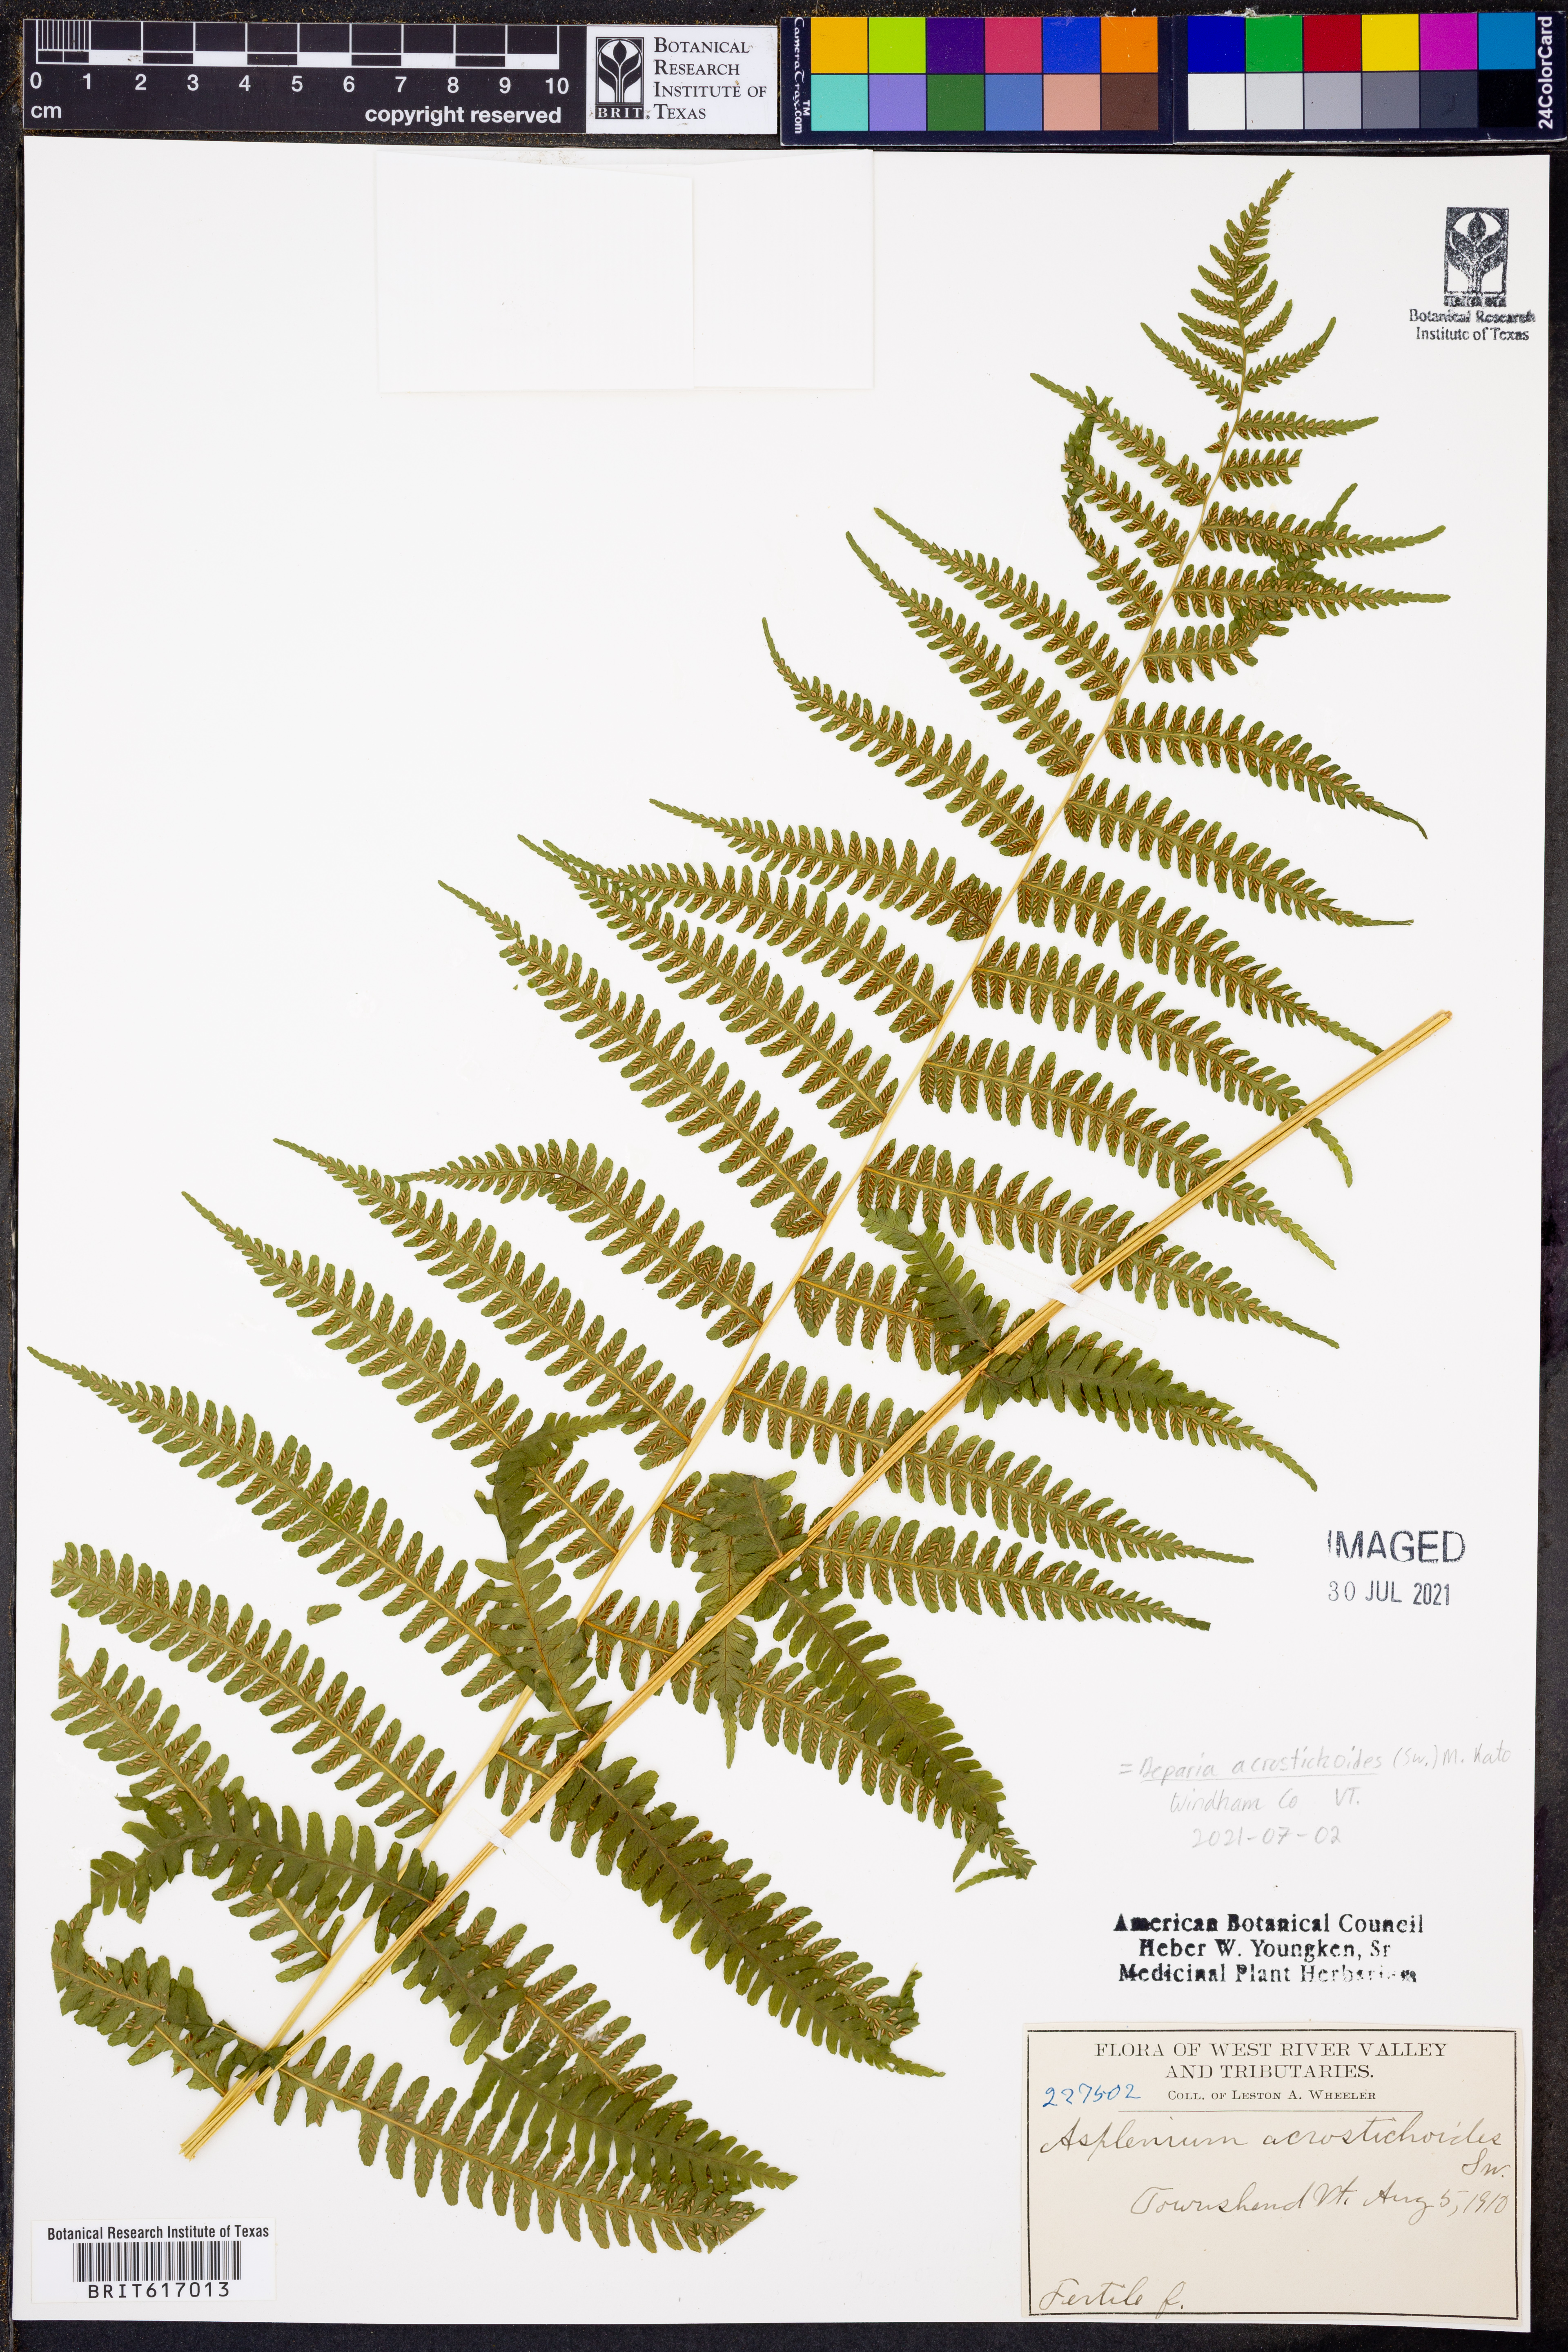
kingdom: Plantae
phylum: Tracheophyta
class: Polypodiopsida
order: Polypodiales
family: Athyriaceae
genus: Deparia
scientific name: Deparia acrostichoides
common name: Silver false spleenwort
